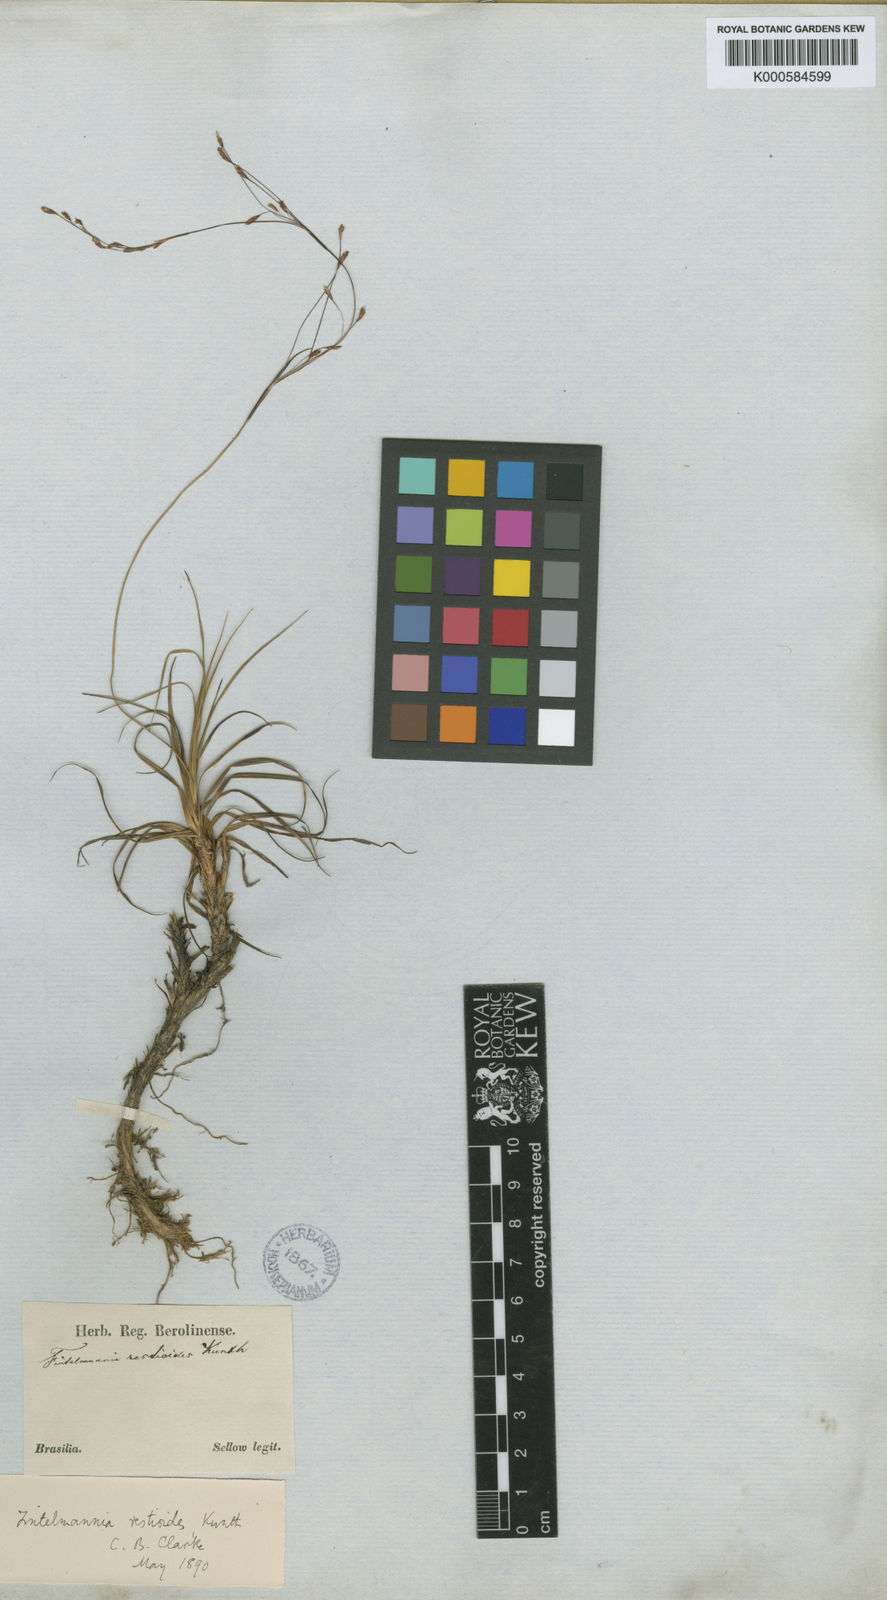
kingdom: Plantae
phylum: Tracheophyta
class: Liliopsida
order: Poales
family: Cyperaceae
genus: Trilepis
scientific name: Trilepis lhotzkiana
